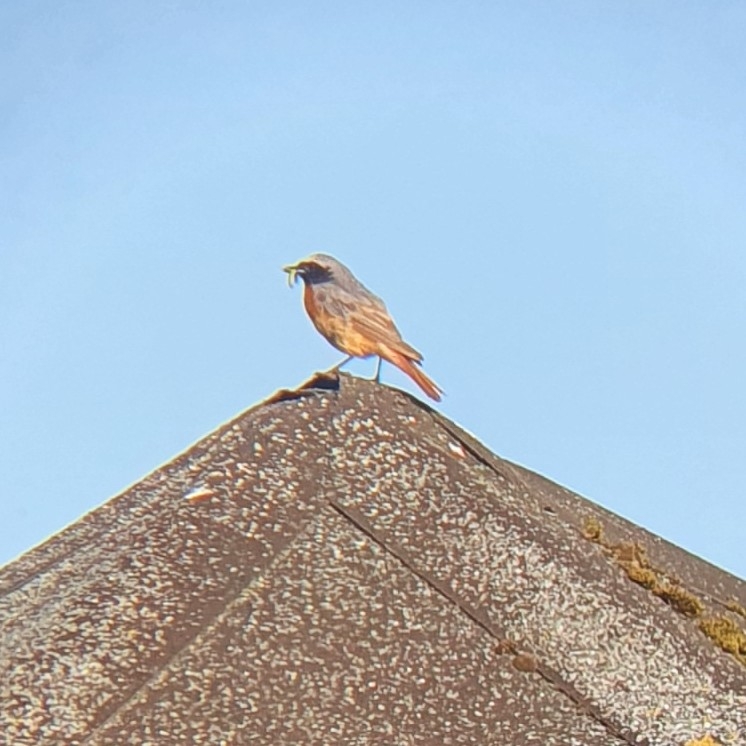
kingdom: Animalia
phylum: Chordata
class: Aves
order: Passeriformes
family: Muscicapidae
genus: Phoenicurus
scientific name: Phoenicurus phoenicurus
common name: Rødstjert
